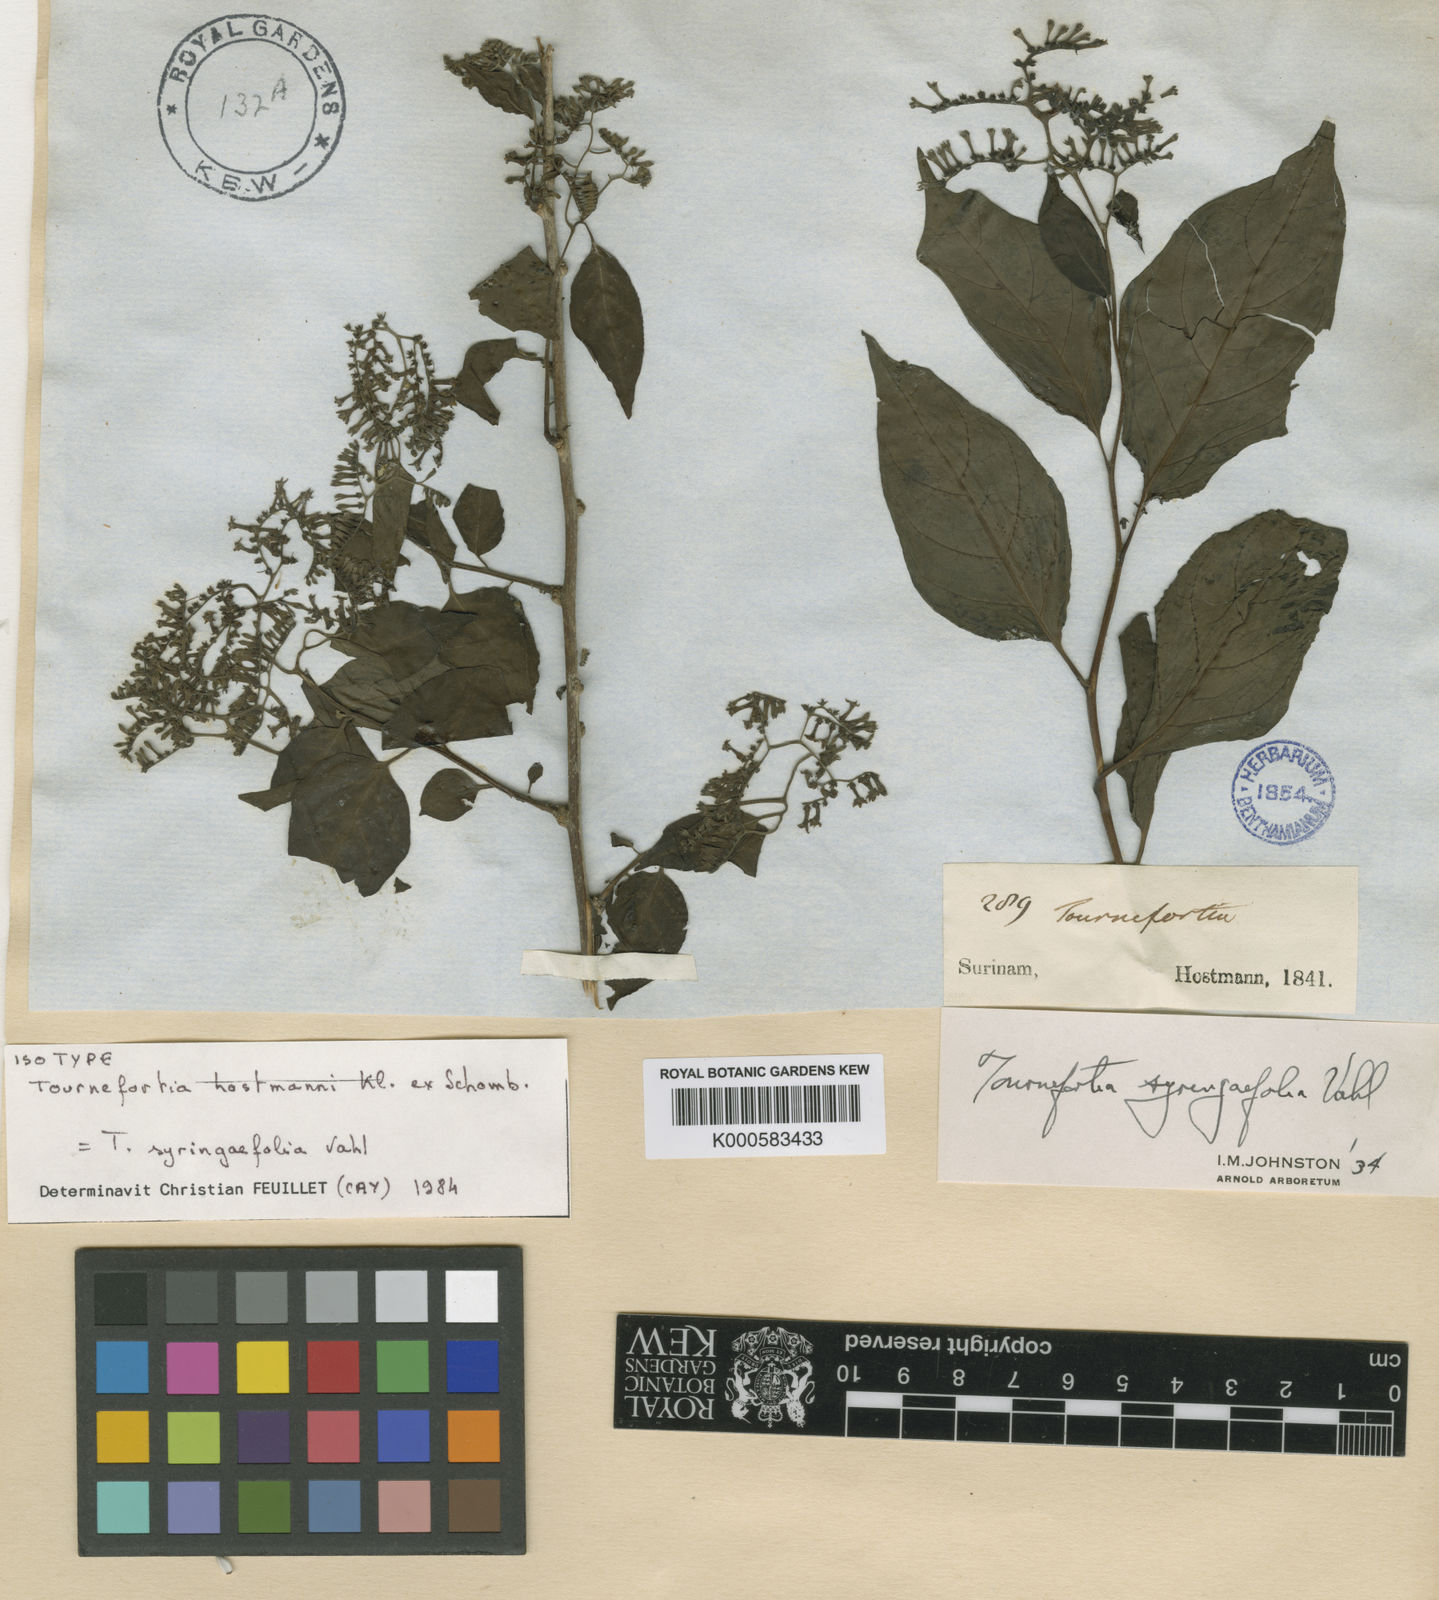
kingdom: Plantae
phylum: Tracheophyta
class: Magnoliopsida
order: Boraginales
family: Heliotropiaceae
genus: Myriopus
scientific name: Myriopus maculatus
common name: Laurel-leaf soldierbush
